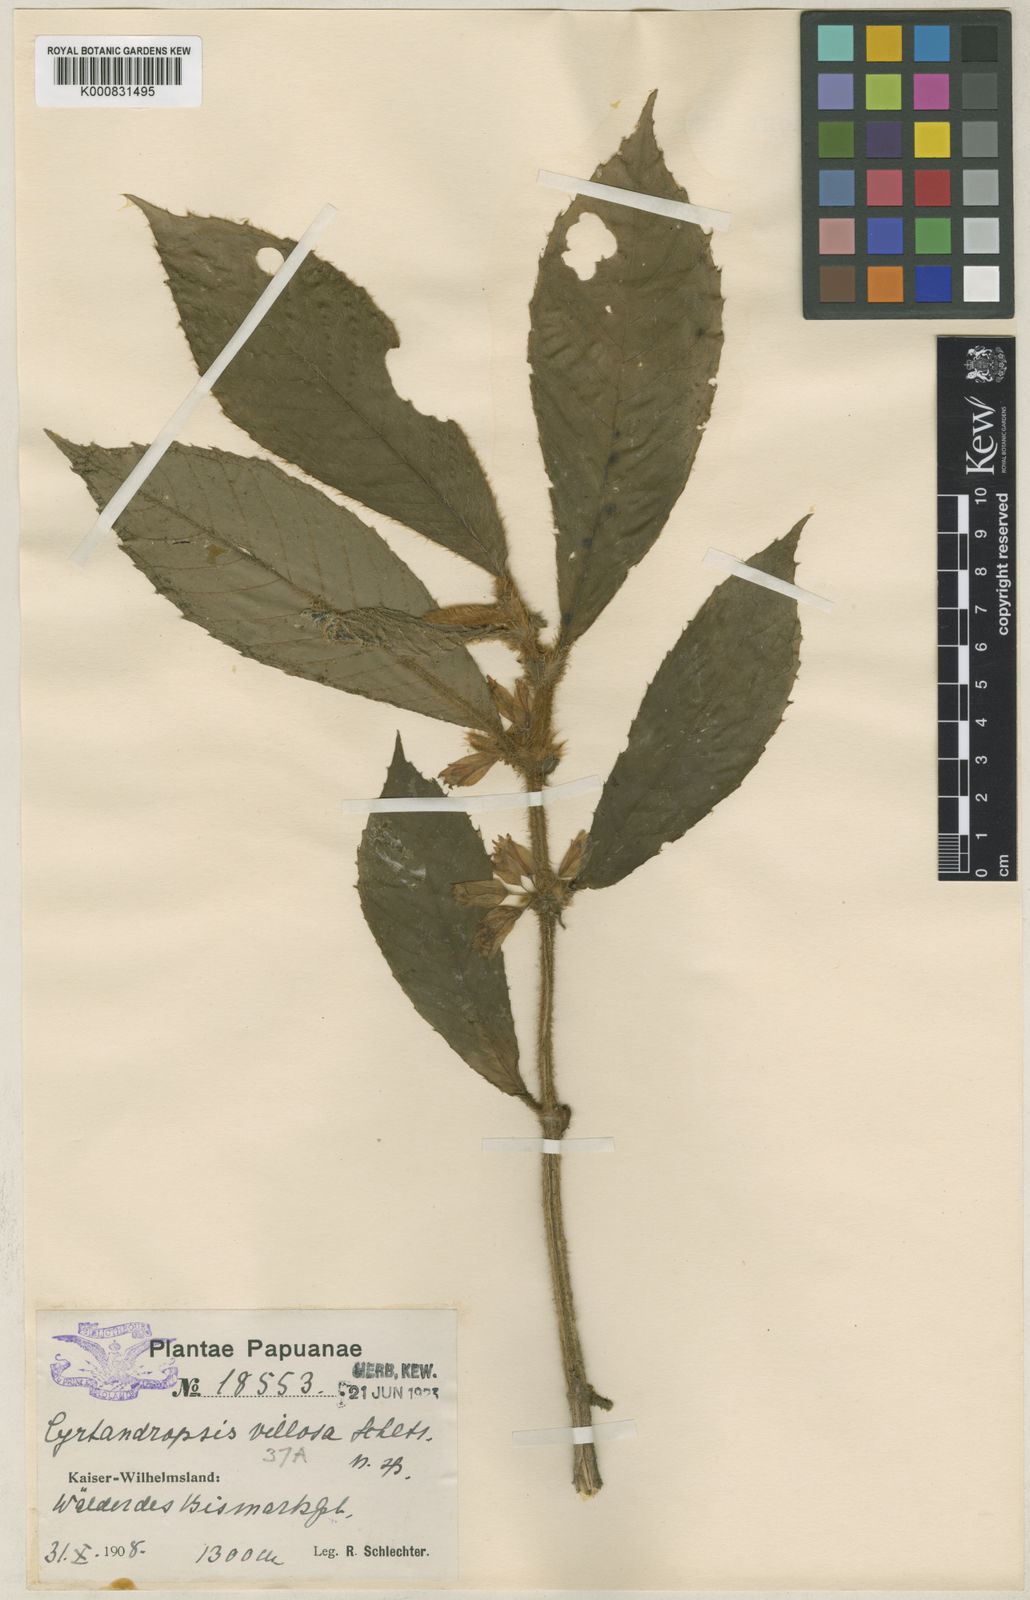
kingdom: Plantae
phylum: Tracheophyta
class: Magnoliopsida
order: Lamiales
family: Gesneriaceae
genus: Cyrtandra
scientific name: Cyrtandra rivularis
